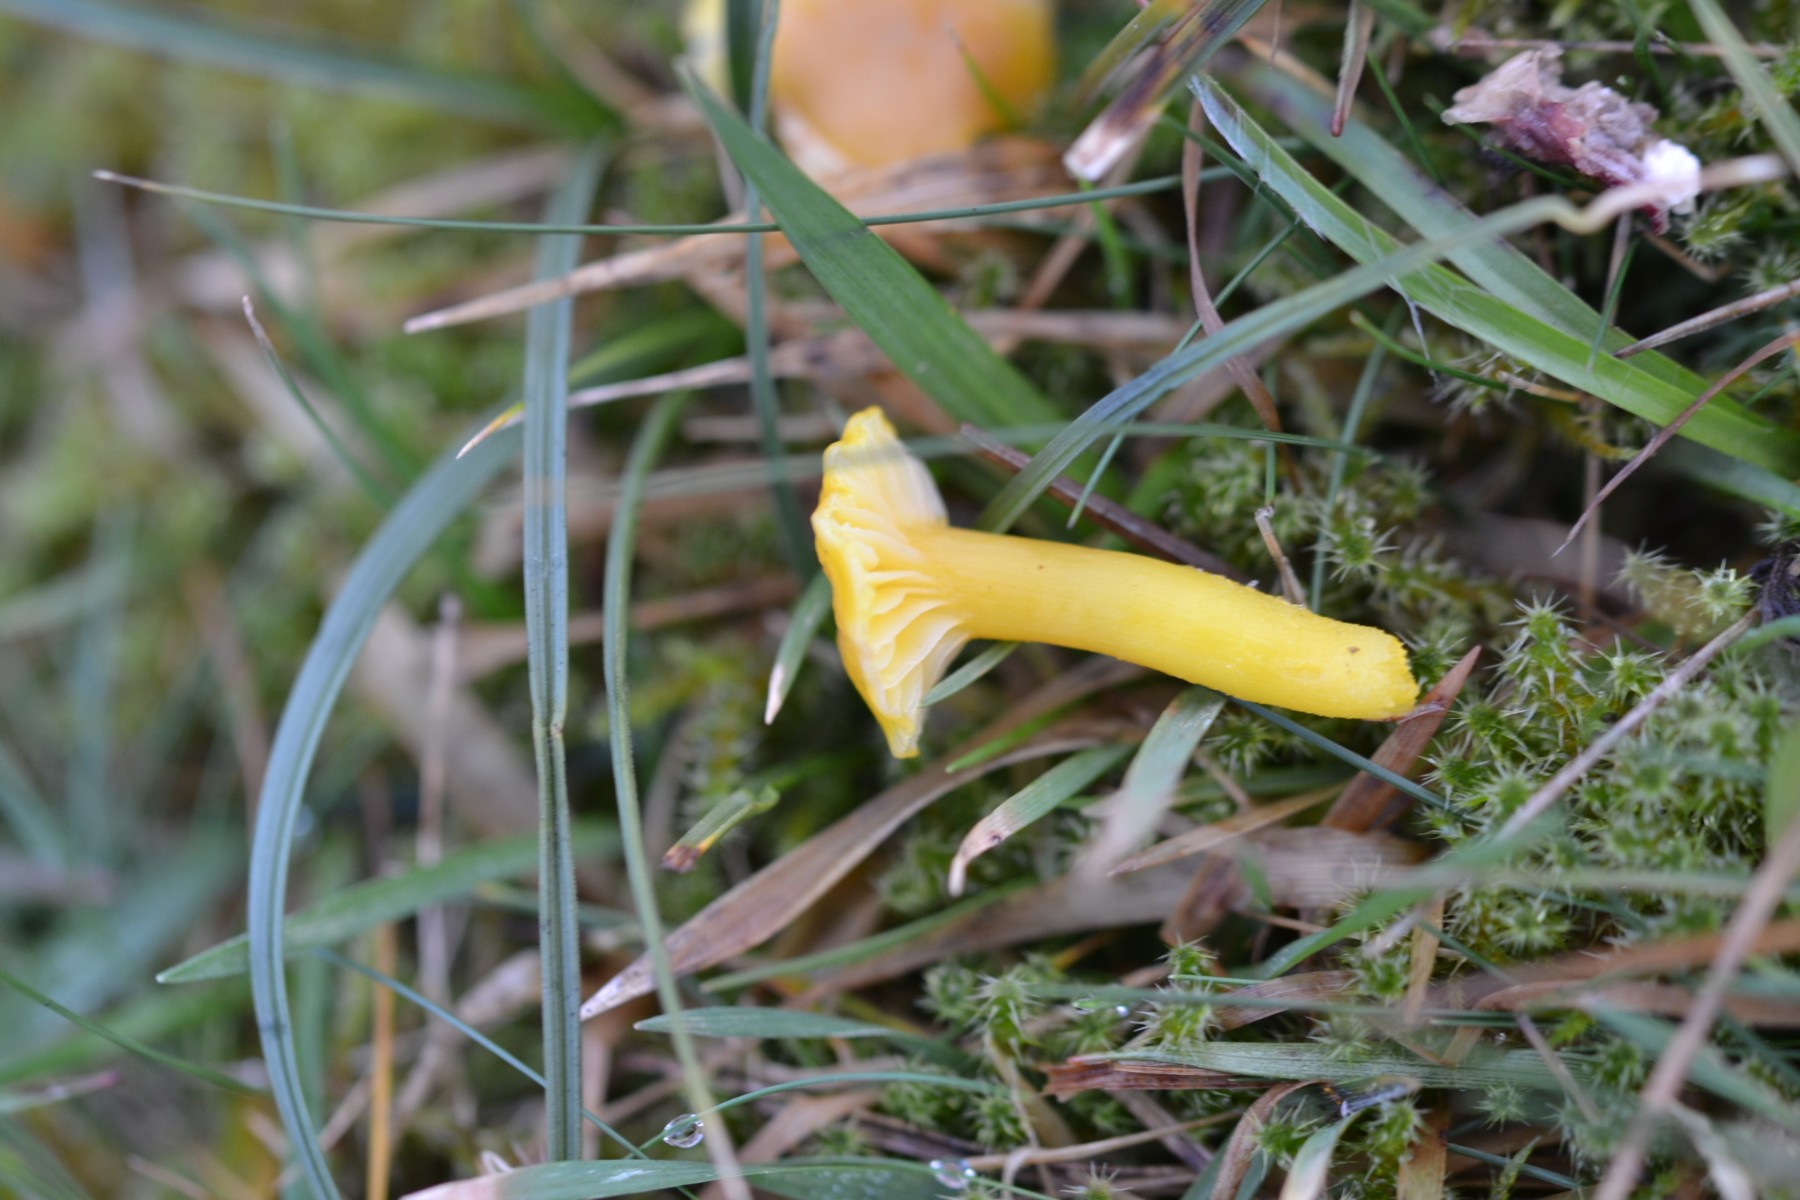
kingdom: Fungi
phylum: Basidiomycota
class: Agaricomycetes
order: Agaricales
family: Hygrophoraceae
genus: Hygrocybe
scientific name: Hygrocybe ceracea
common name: voksgul vokshat
